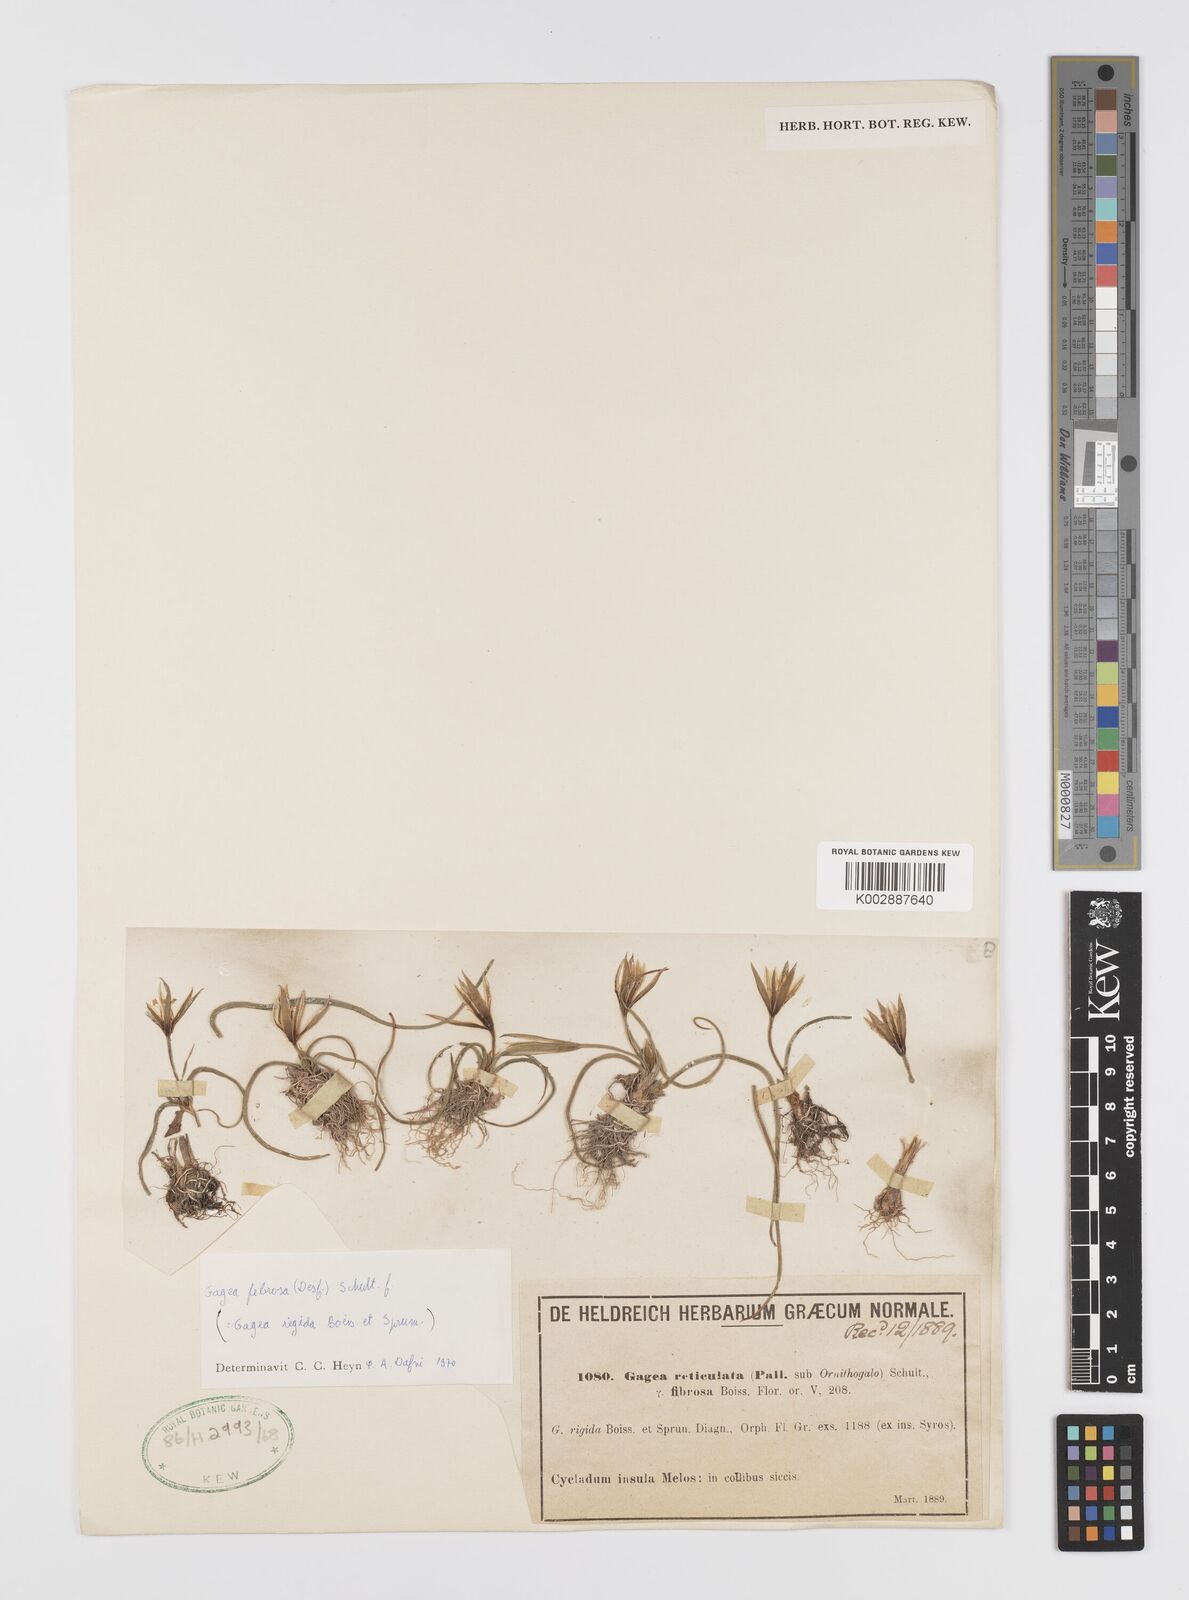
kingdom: Plantae
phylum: Tracheophyta
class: Liliopsida
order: Liliales
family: Liliaceae
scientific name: Liliaceae
